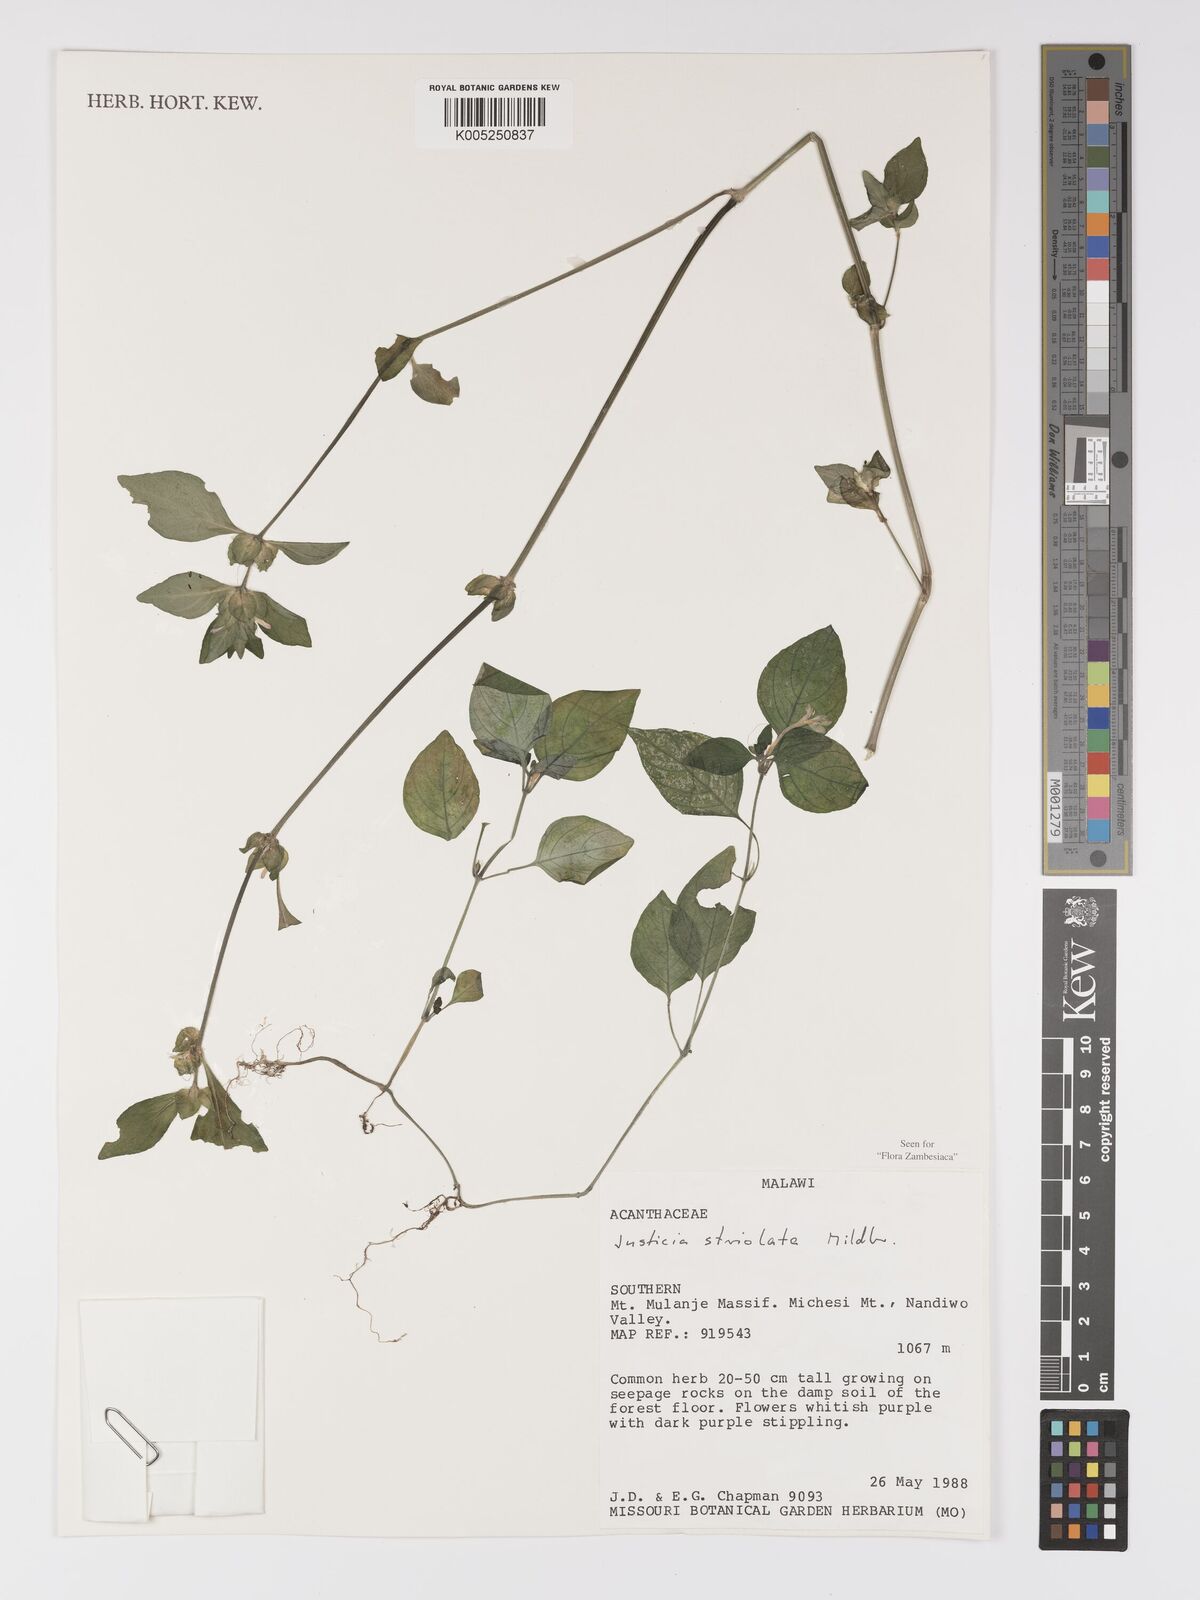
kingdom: Plantae
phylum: Tracheophyta
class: Magnoliopsida
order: Lamiales
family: Acanthaceae
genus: Justicia
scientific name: Justicia striolata
